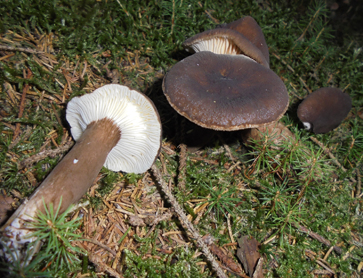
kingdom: Fungi
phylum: Basidiomycota
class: Agaricomycetes
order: Russulales
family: Russulaceae
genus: Lactarius
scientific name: Lactarius lignyotus
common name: fløjls-mælkehat
